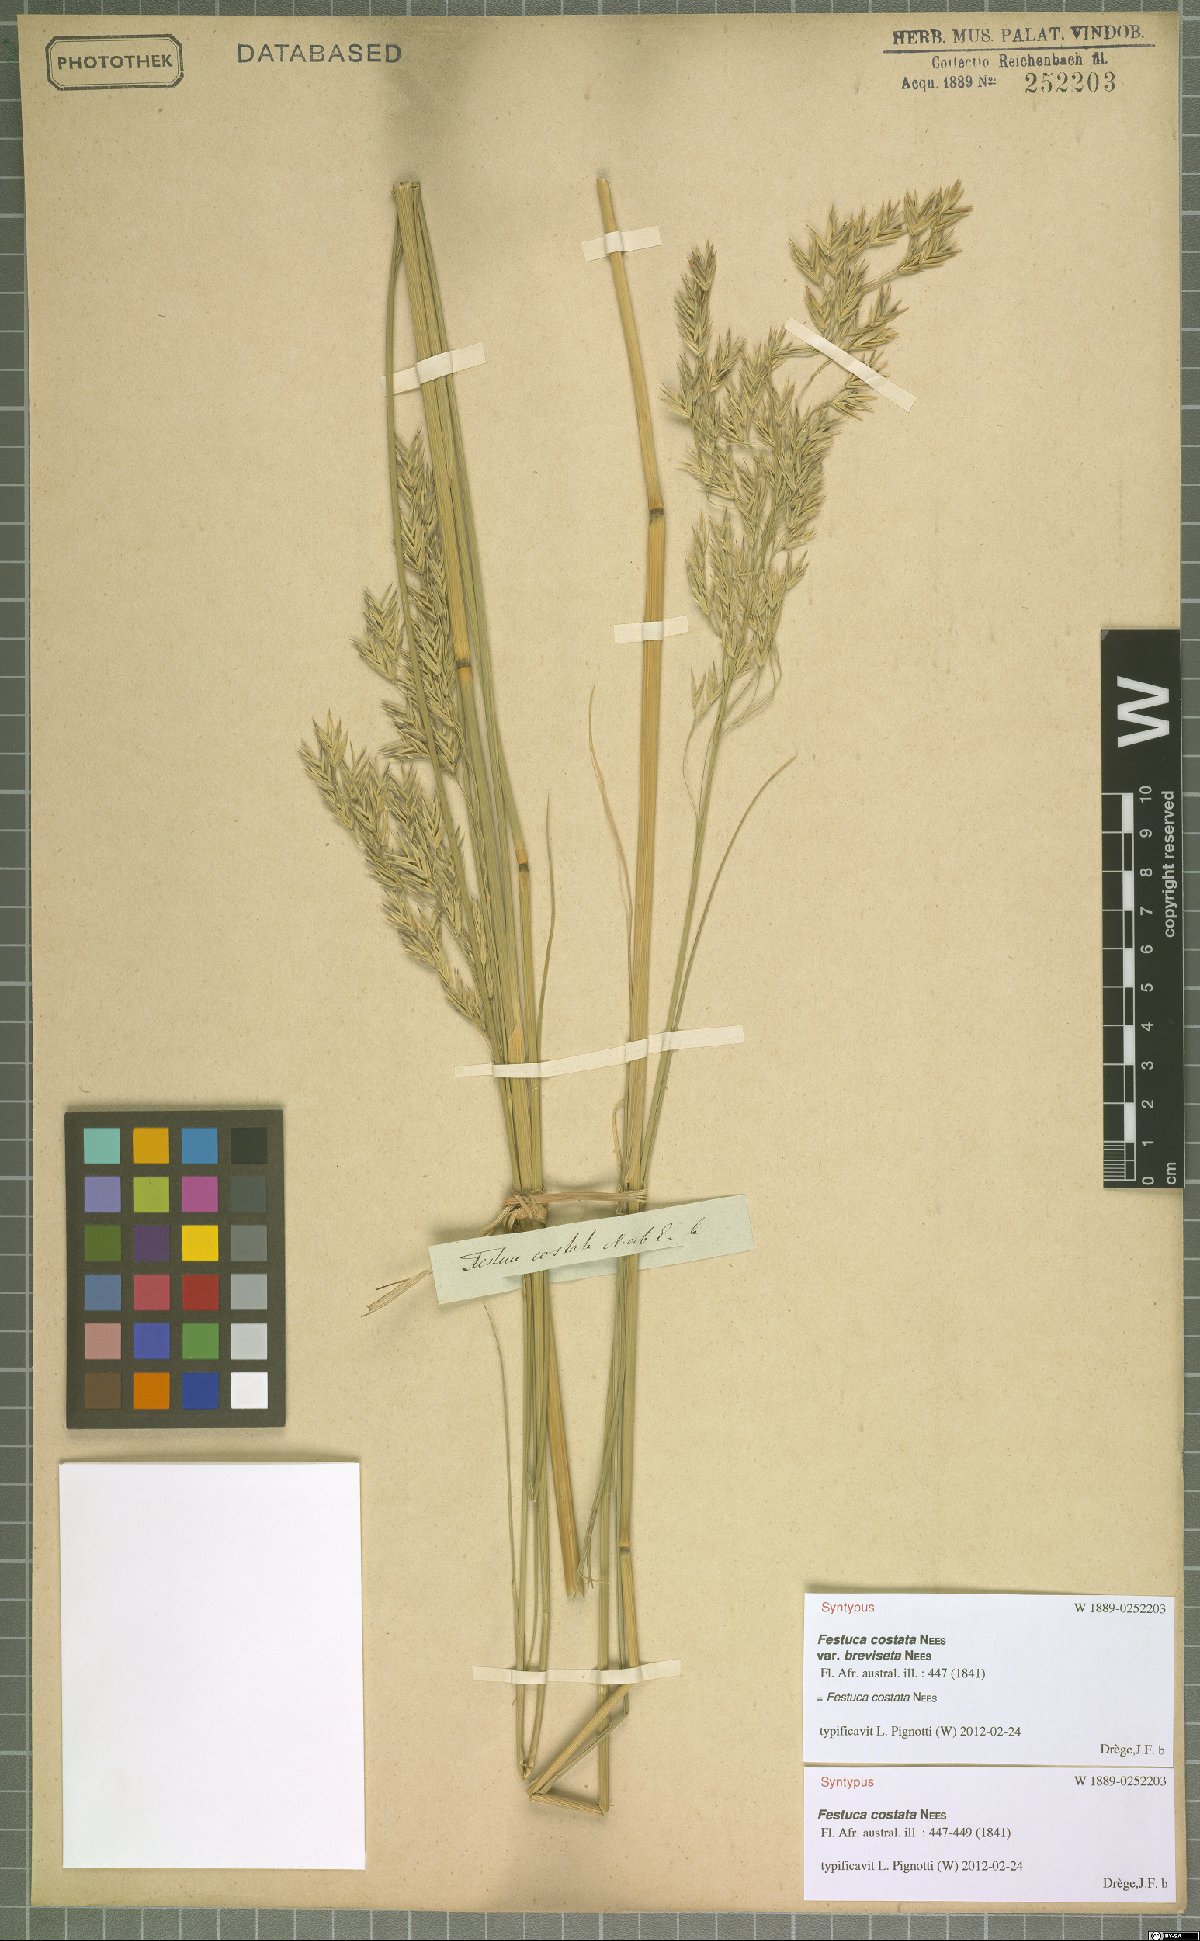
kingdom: Plantae
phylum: Tracheophyta
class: Liliopsida
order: Poales
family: Poaceae
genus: Festuca
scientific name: Festuca costata
